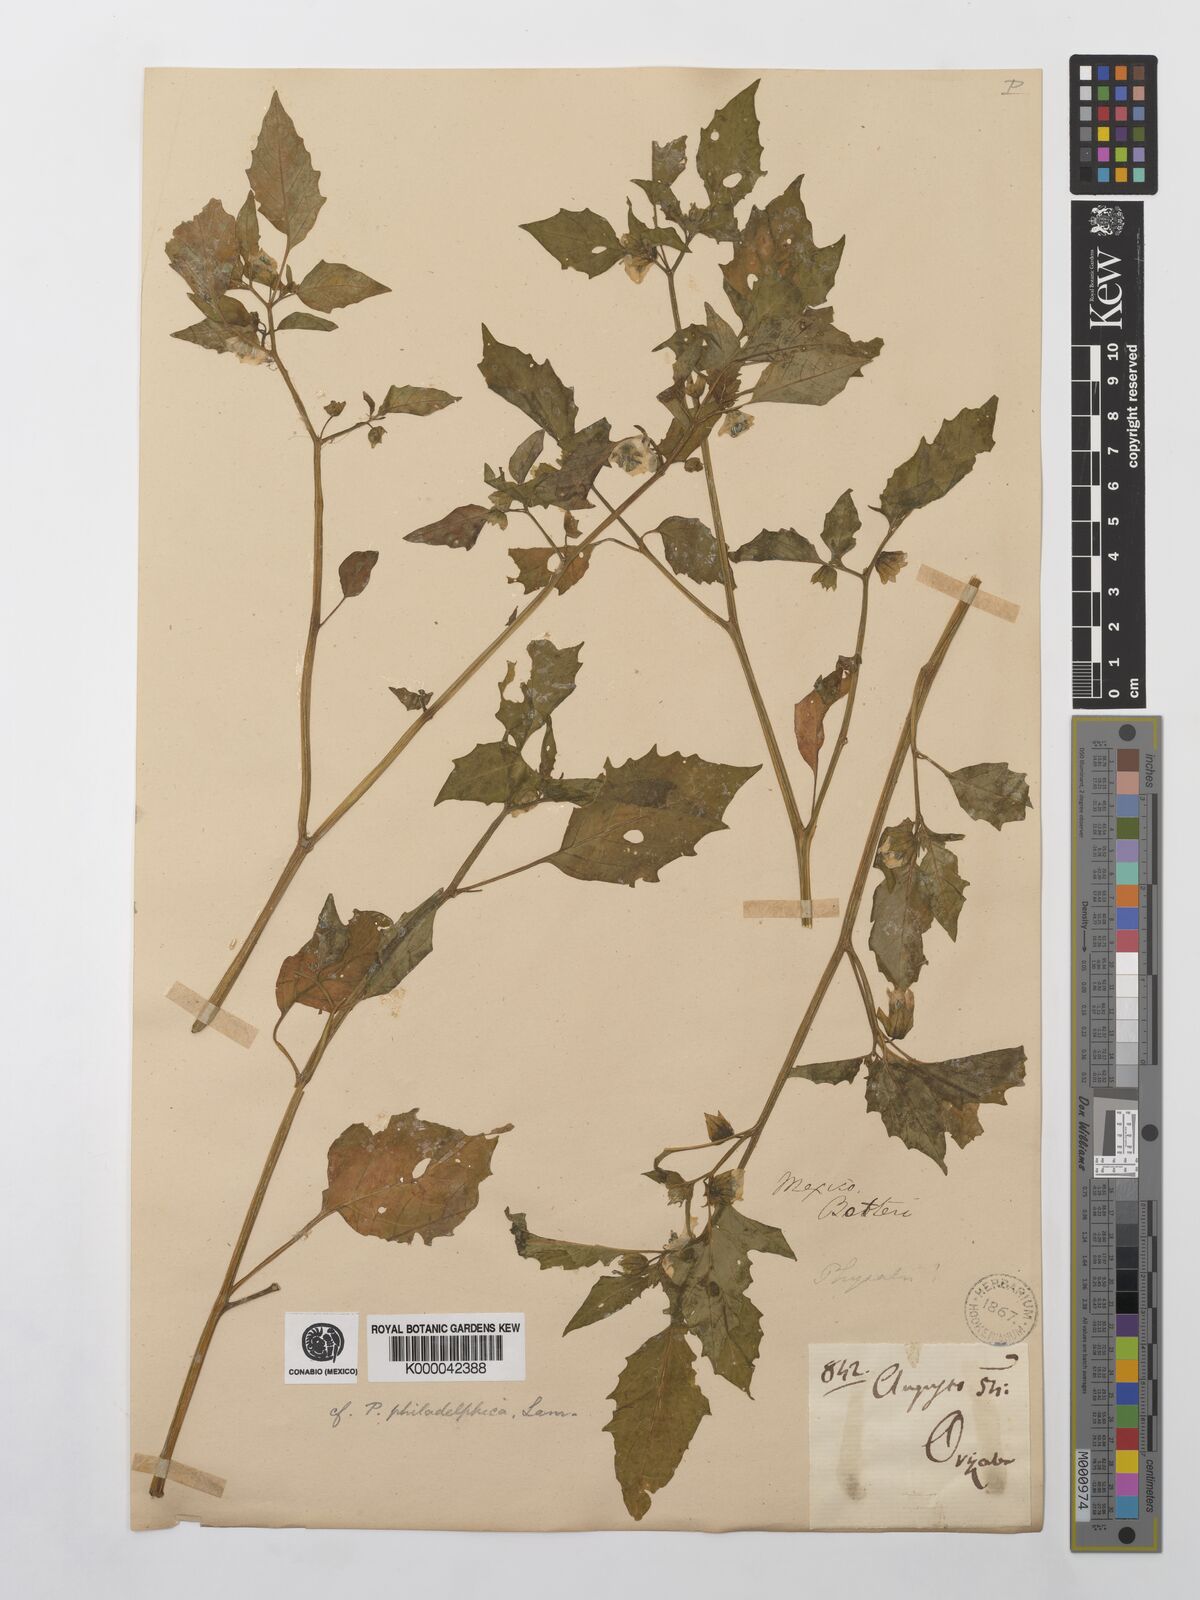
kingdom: Plantae
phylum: Tracheophyta
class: Magnoliopsida
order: Solanales
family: Solanaceae
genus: Physalis
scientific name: Physalis philadelphica
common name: Husk-tomato
